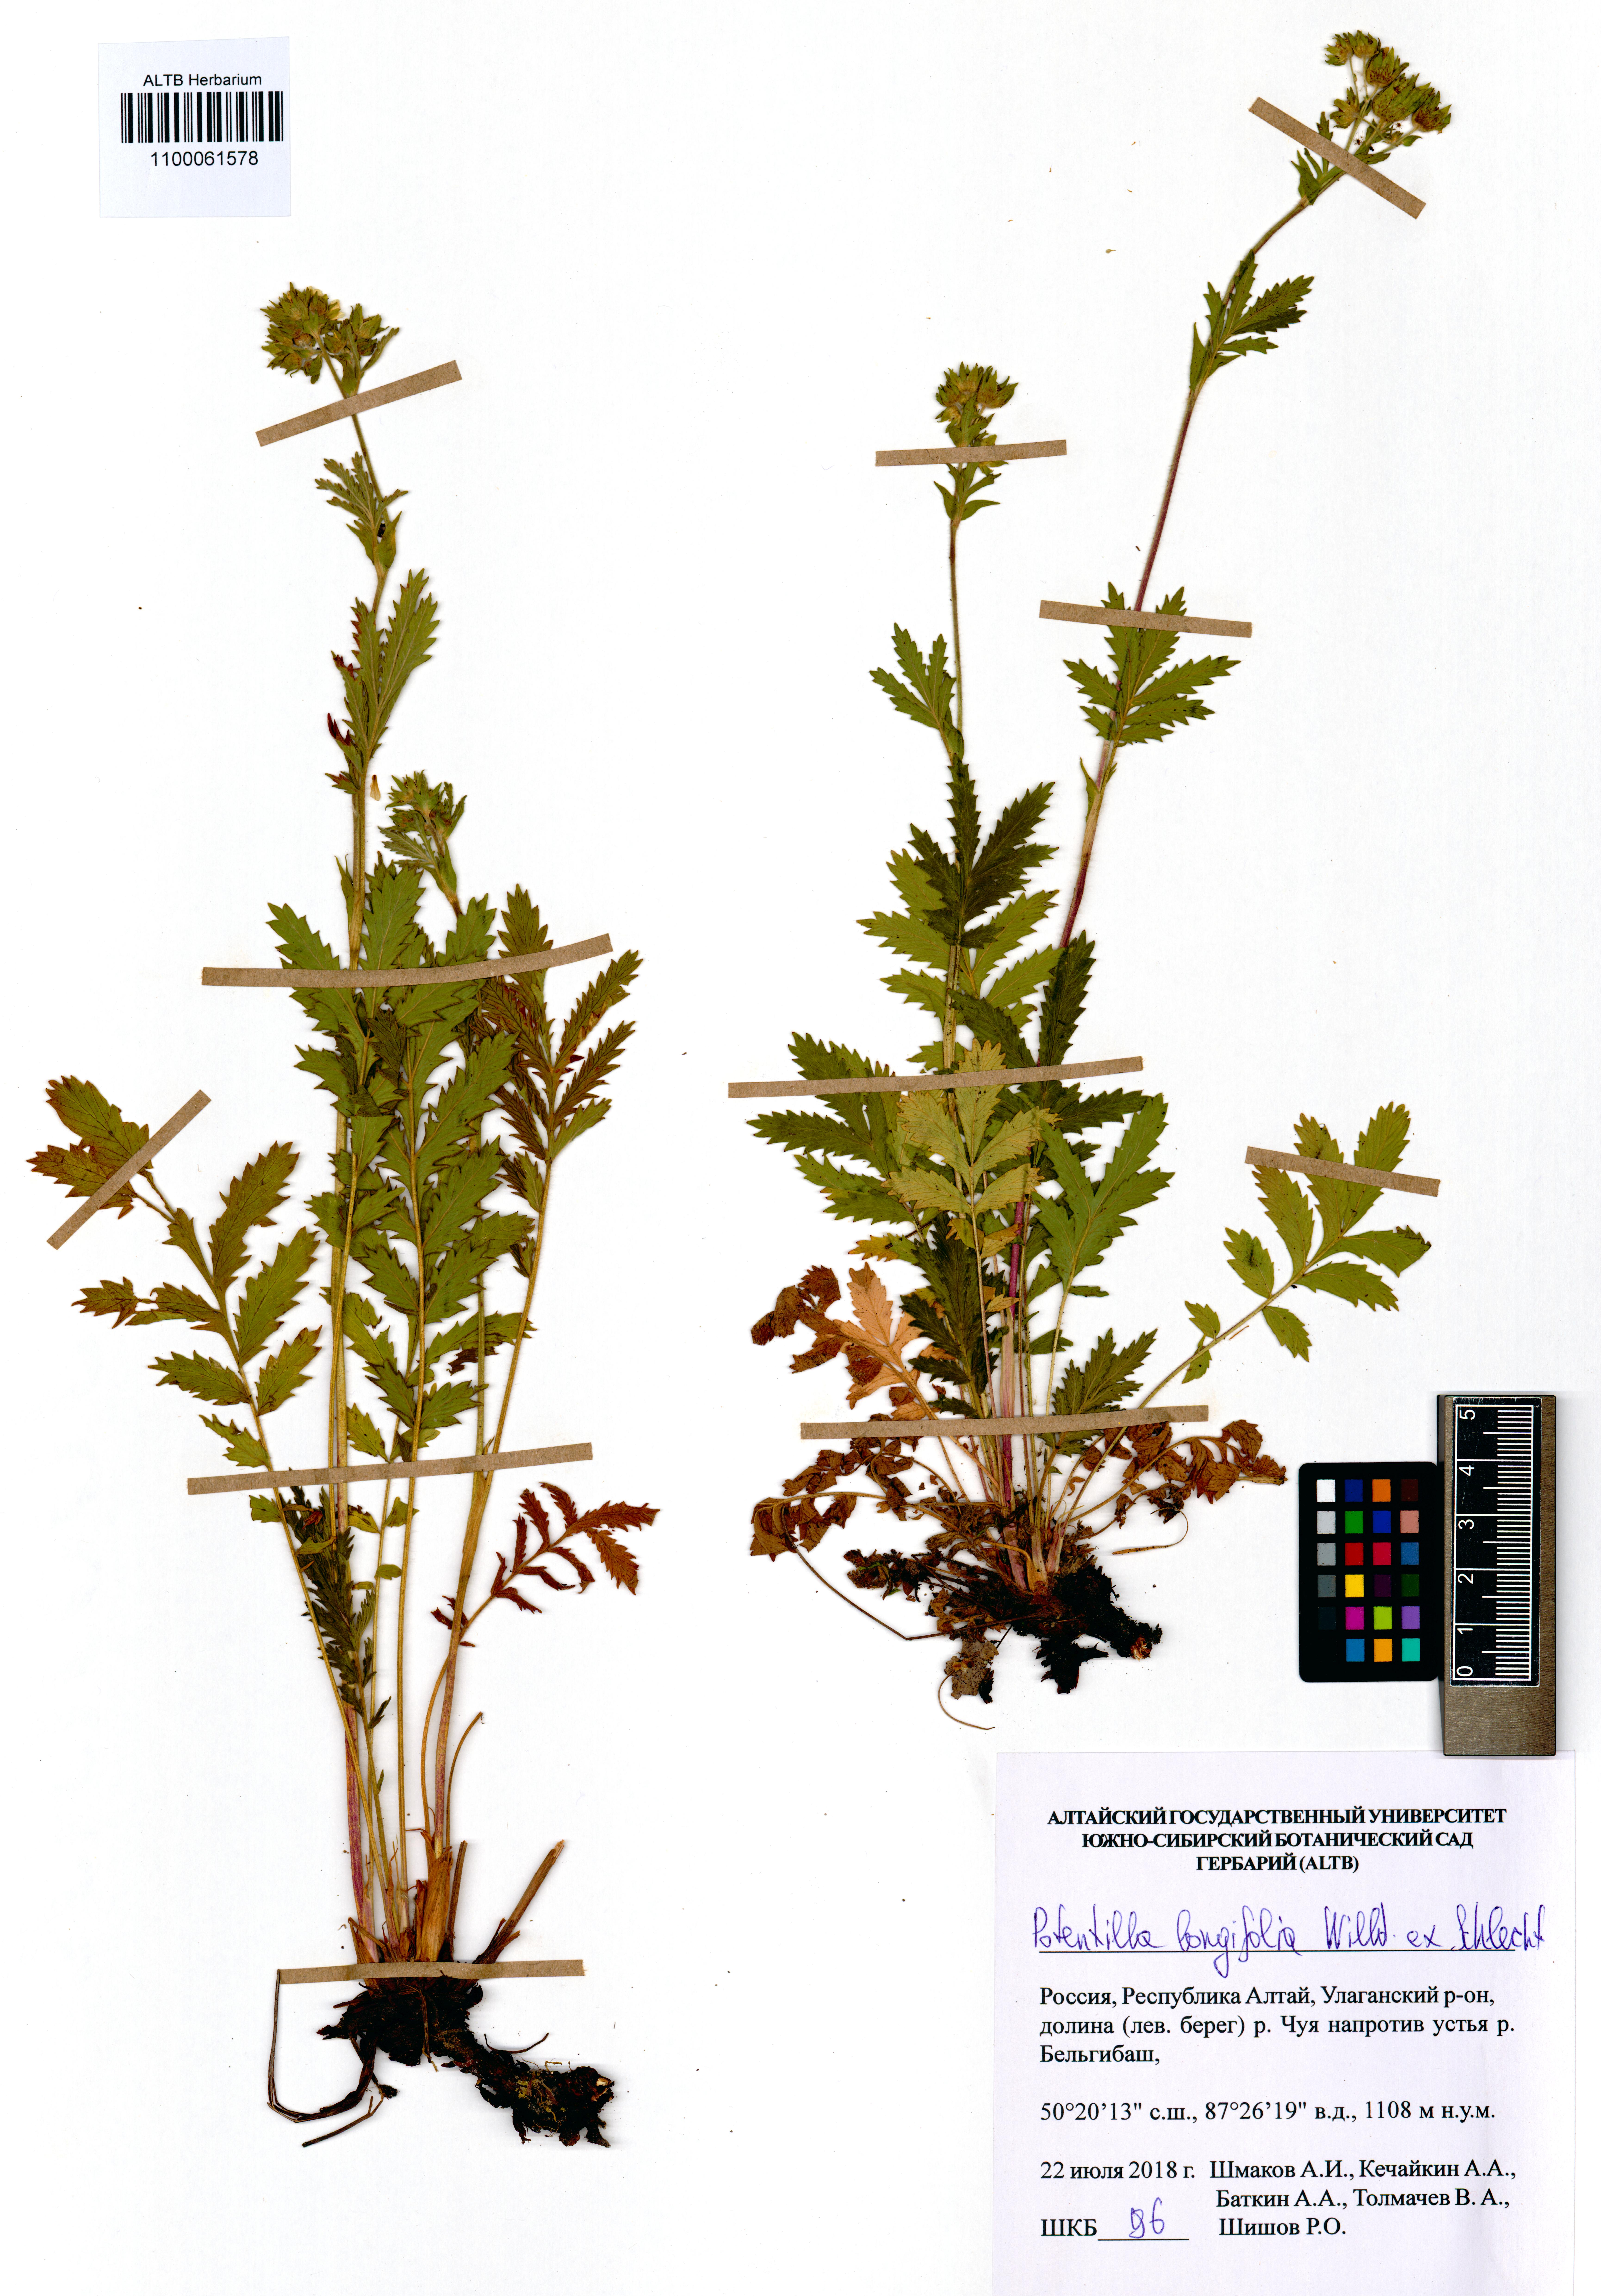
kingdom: Plantae
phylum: Tracheophyta
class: Magnoliopsida
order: Rosales
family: Rosaceae
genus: Potentilla
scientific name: Potentilla longifolia
